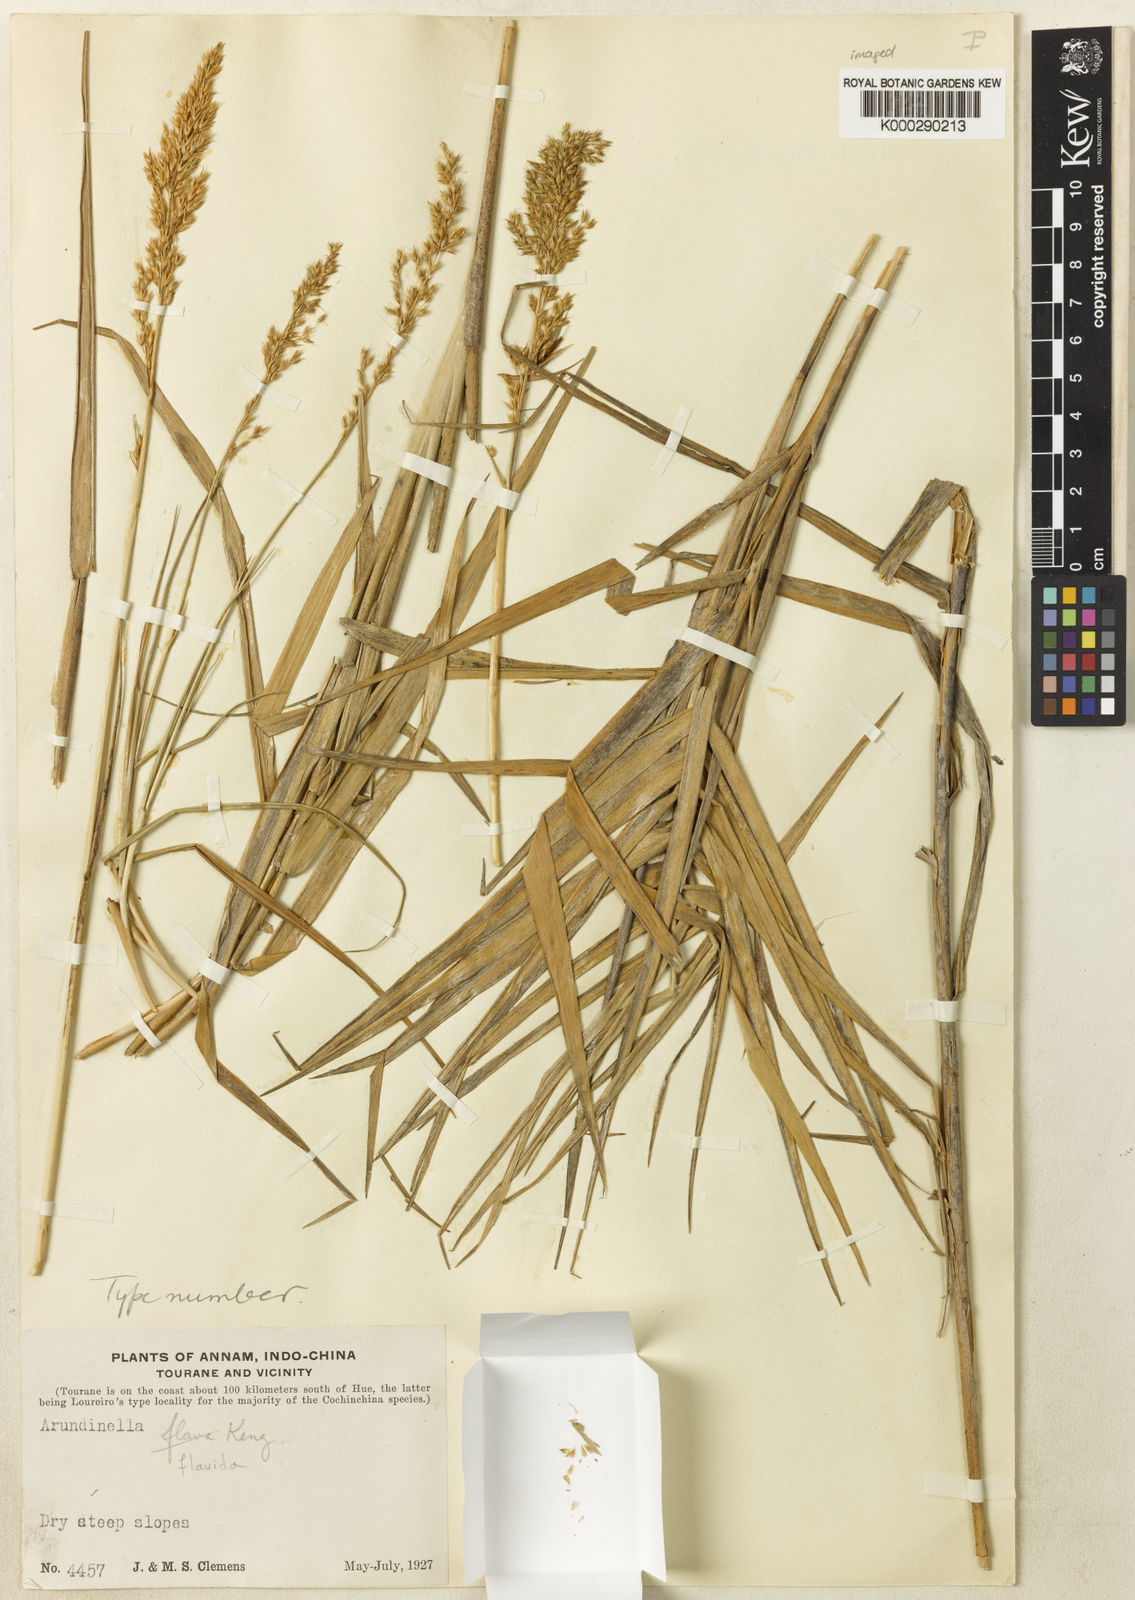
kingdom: Plantae
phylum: Tracheophyta
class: Liliopsida
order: Poales
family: Poaceae
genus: Arundinella
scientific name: Arundinella flavida
